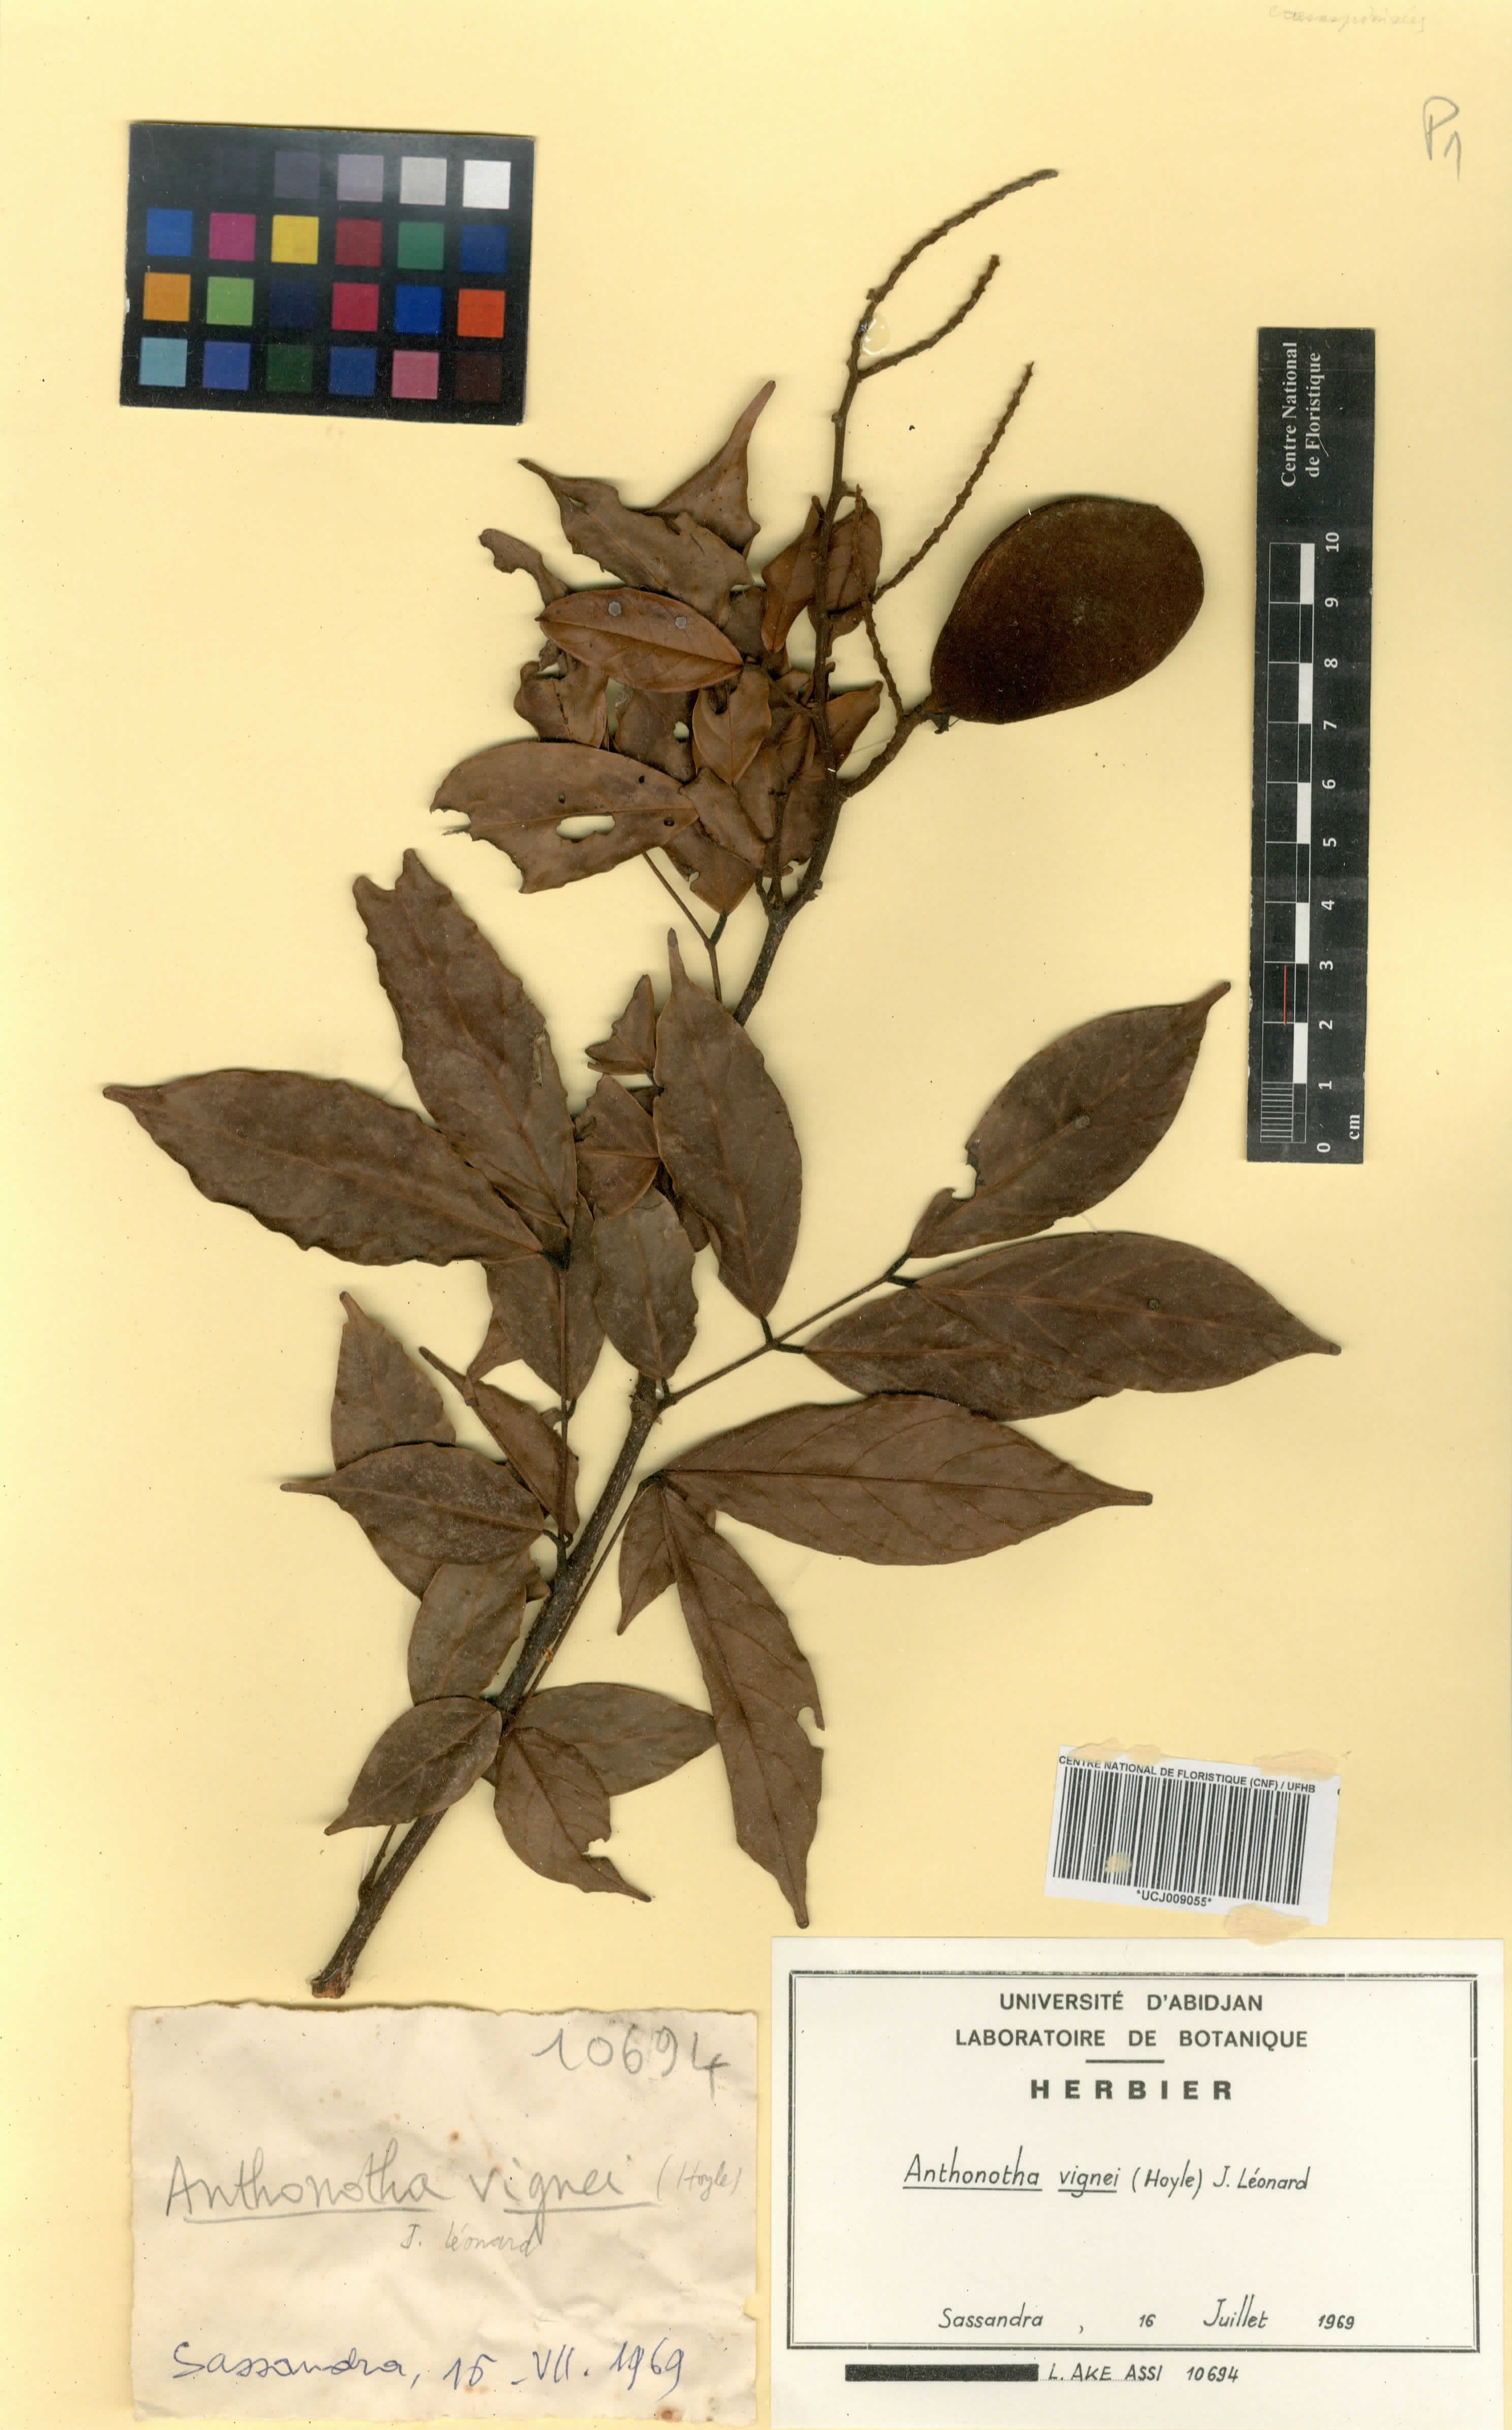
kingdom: Plantae
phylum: Tracheophyta
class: Magnoliopsida
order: Fabales
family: Fabaceae
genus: Englerodendron
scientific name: Englerodendron vignei
